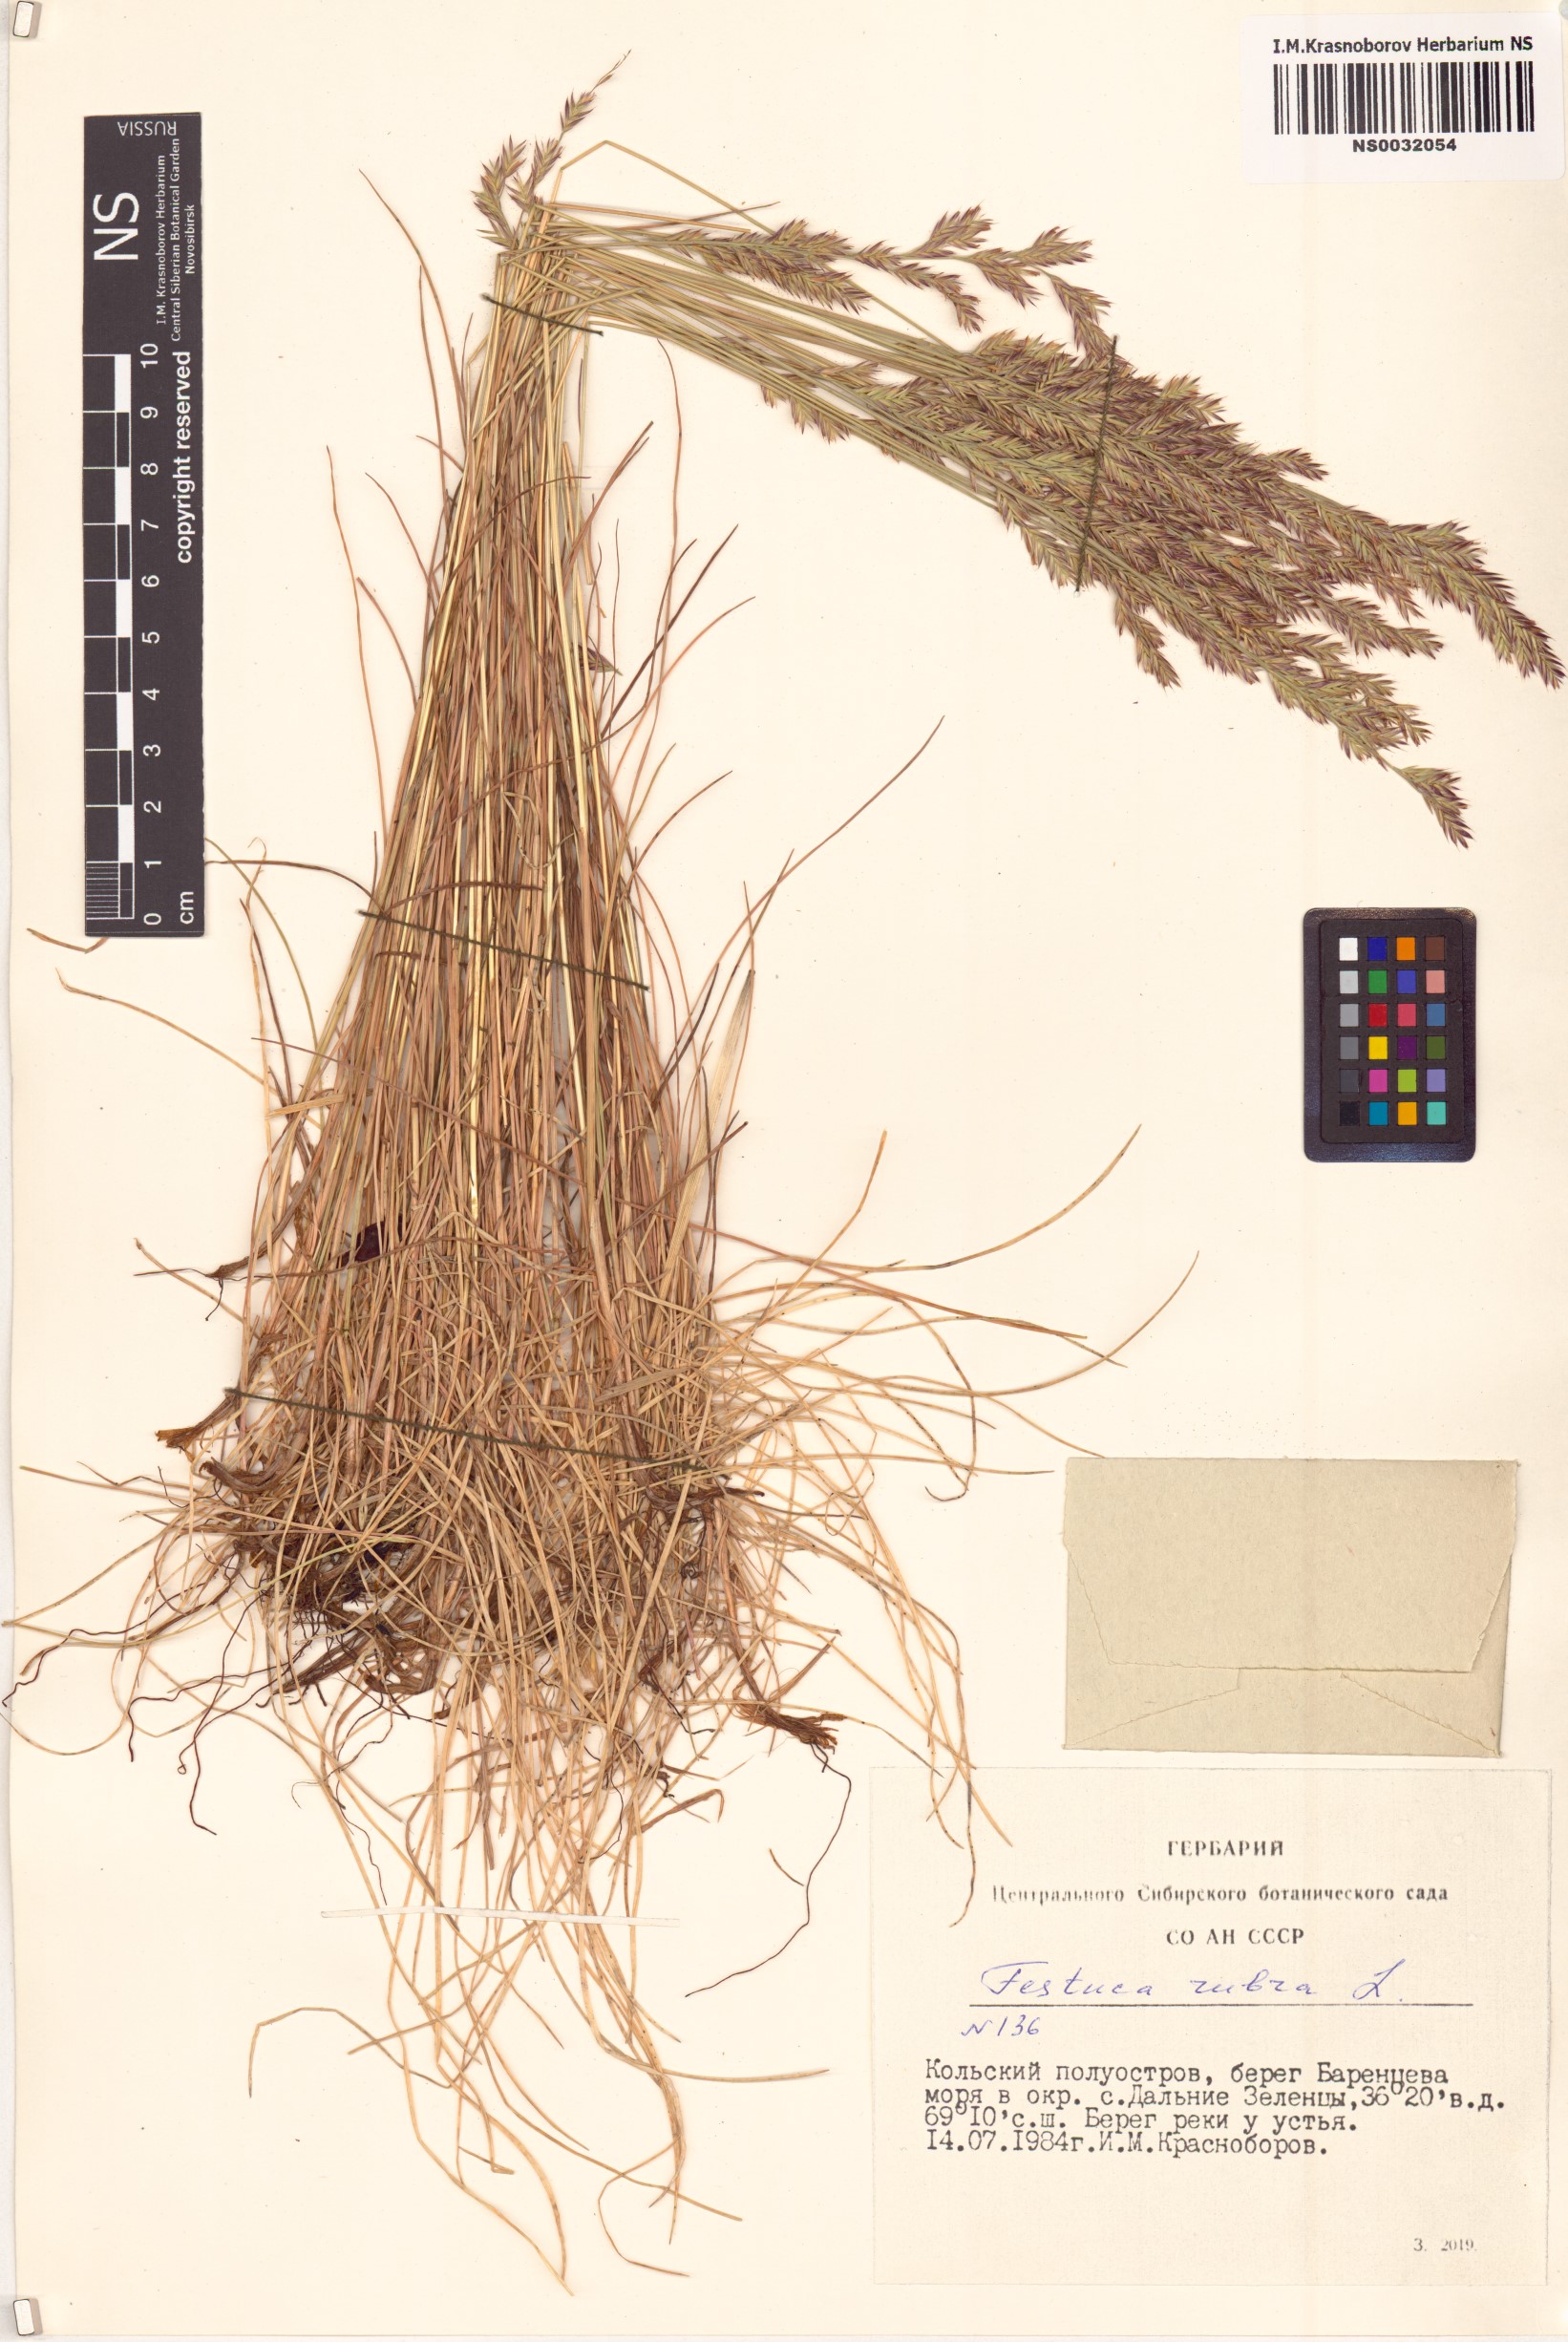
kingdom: Plantae
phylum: Tracheophyta
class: Liliopsida
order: Poales
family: Poaceae
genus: Festuca
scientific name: Festuca rubra
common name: Red fescue
